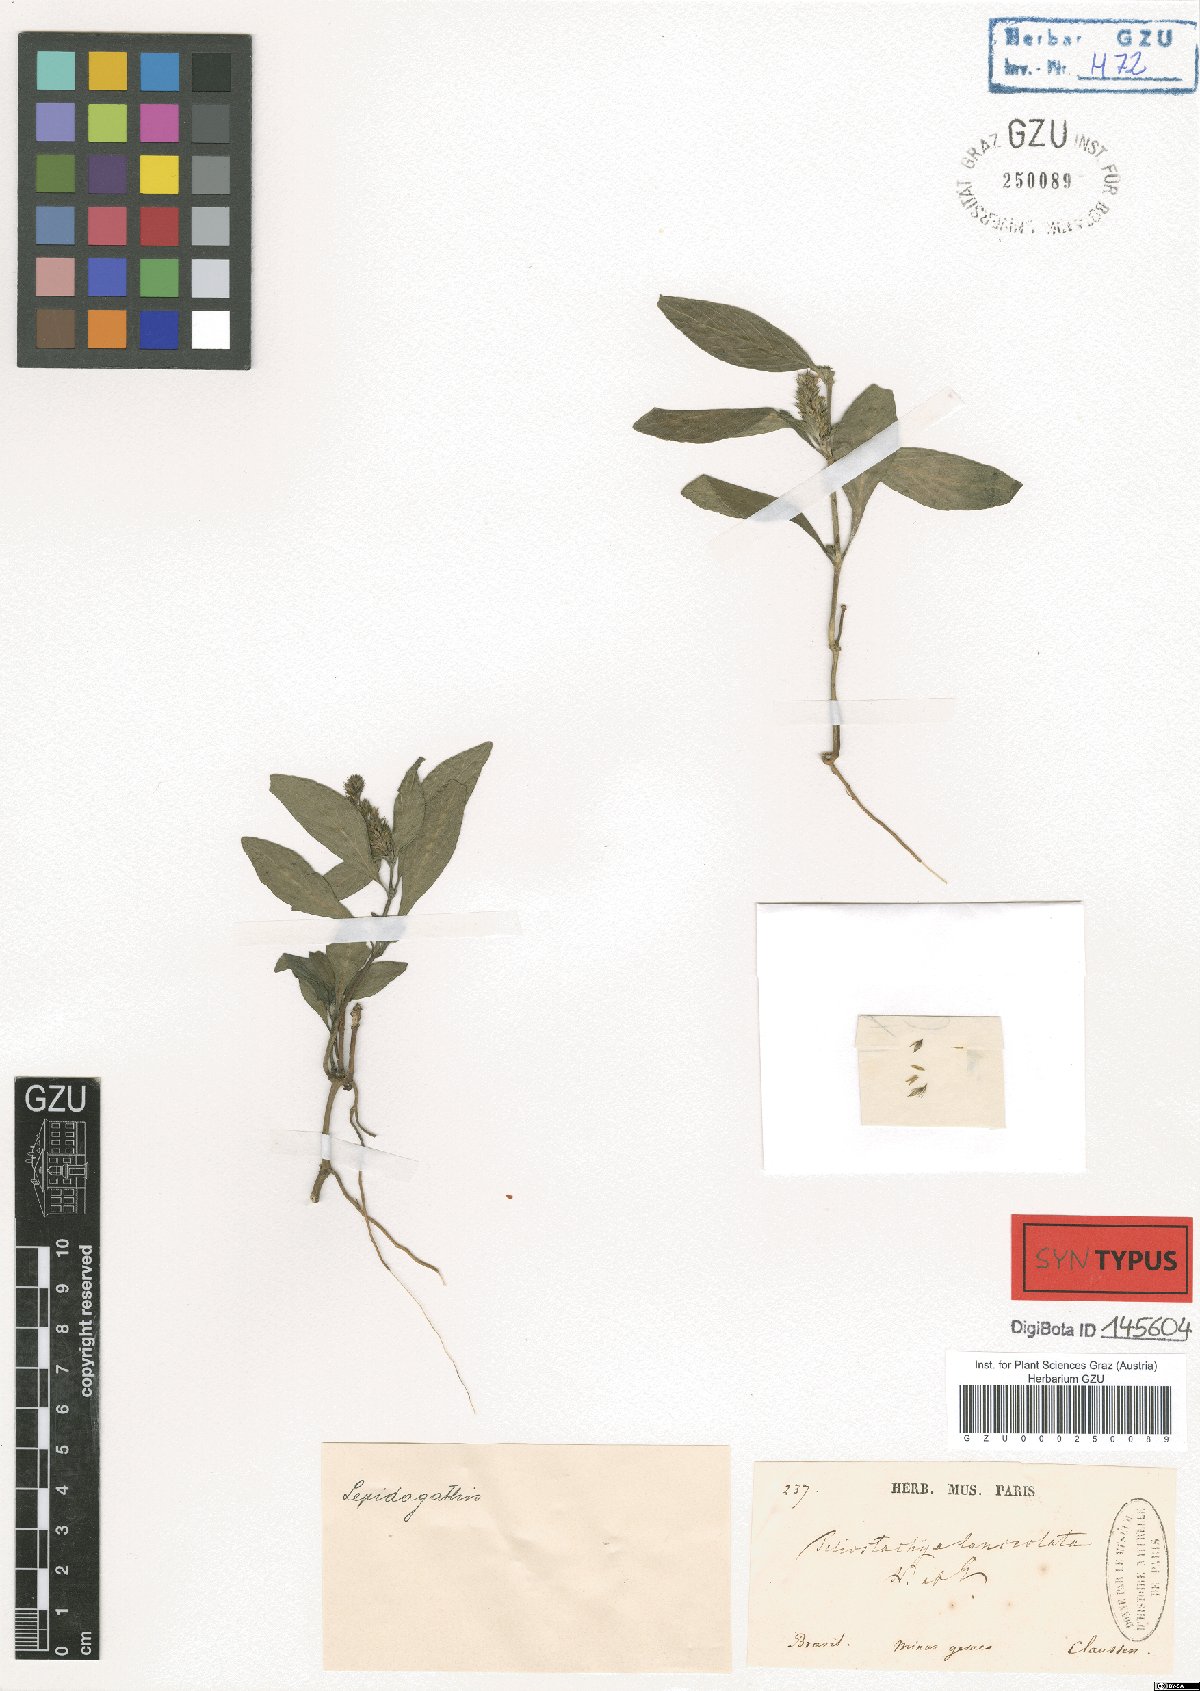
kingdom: Plantae
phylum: Tracheophyta
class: Magnoliopsida
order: Lamiales
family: Acanthaceae
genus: Lepidagathis
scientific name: Lepidagathis alopecuroidea
